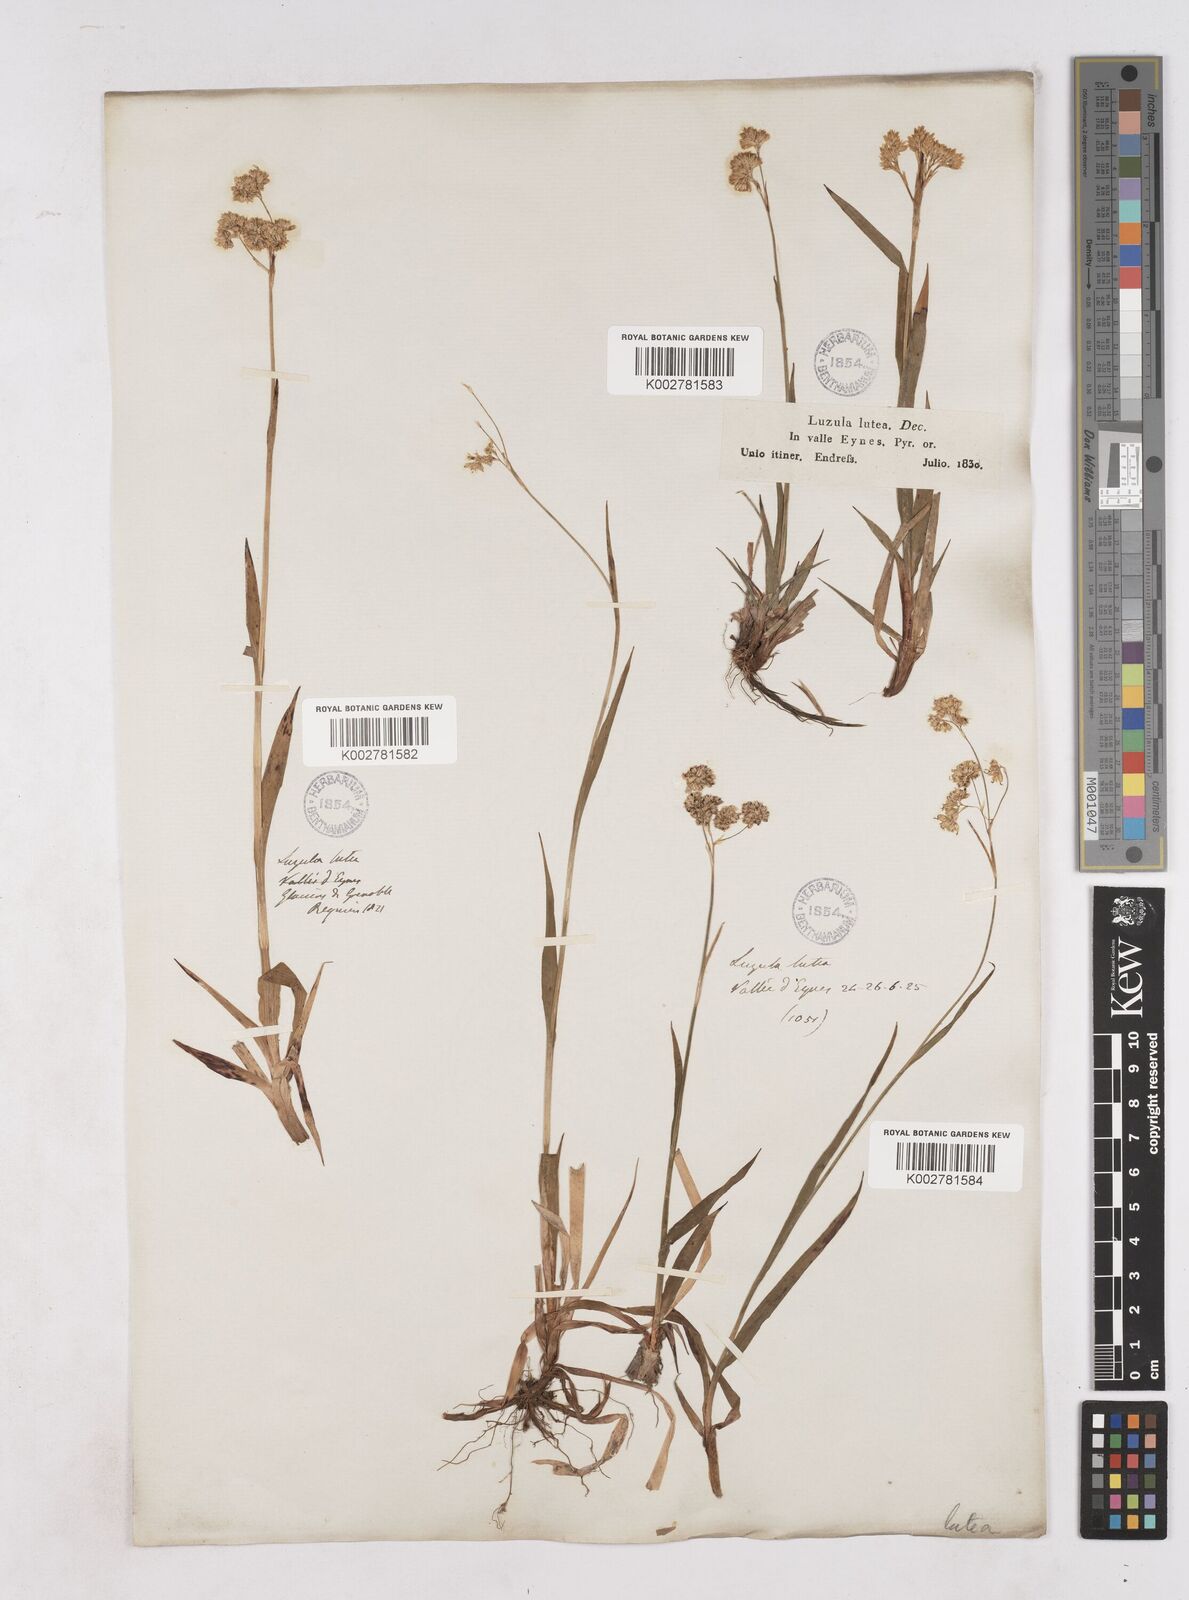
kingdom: Plantae
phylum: Tracheophyta
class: Liliopsida
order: Poales
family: Juncaceae
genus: Luzula
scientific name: Luzula lutea
